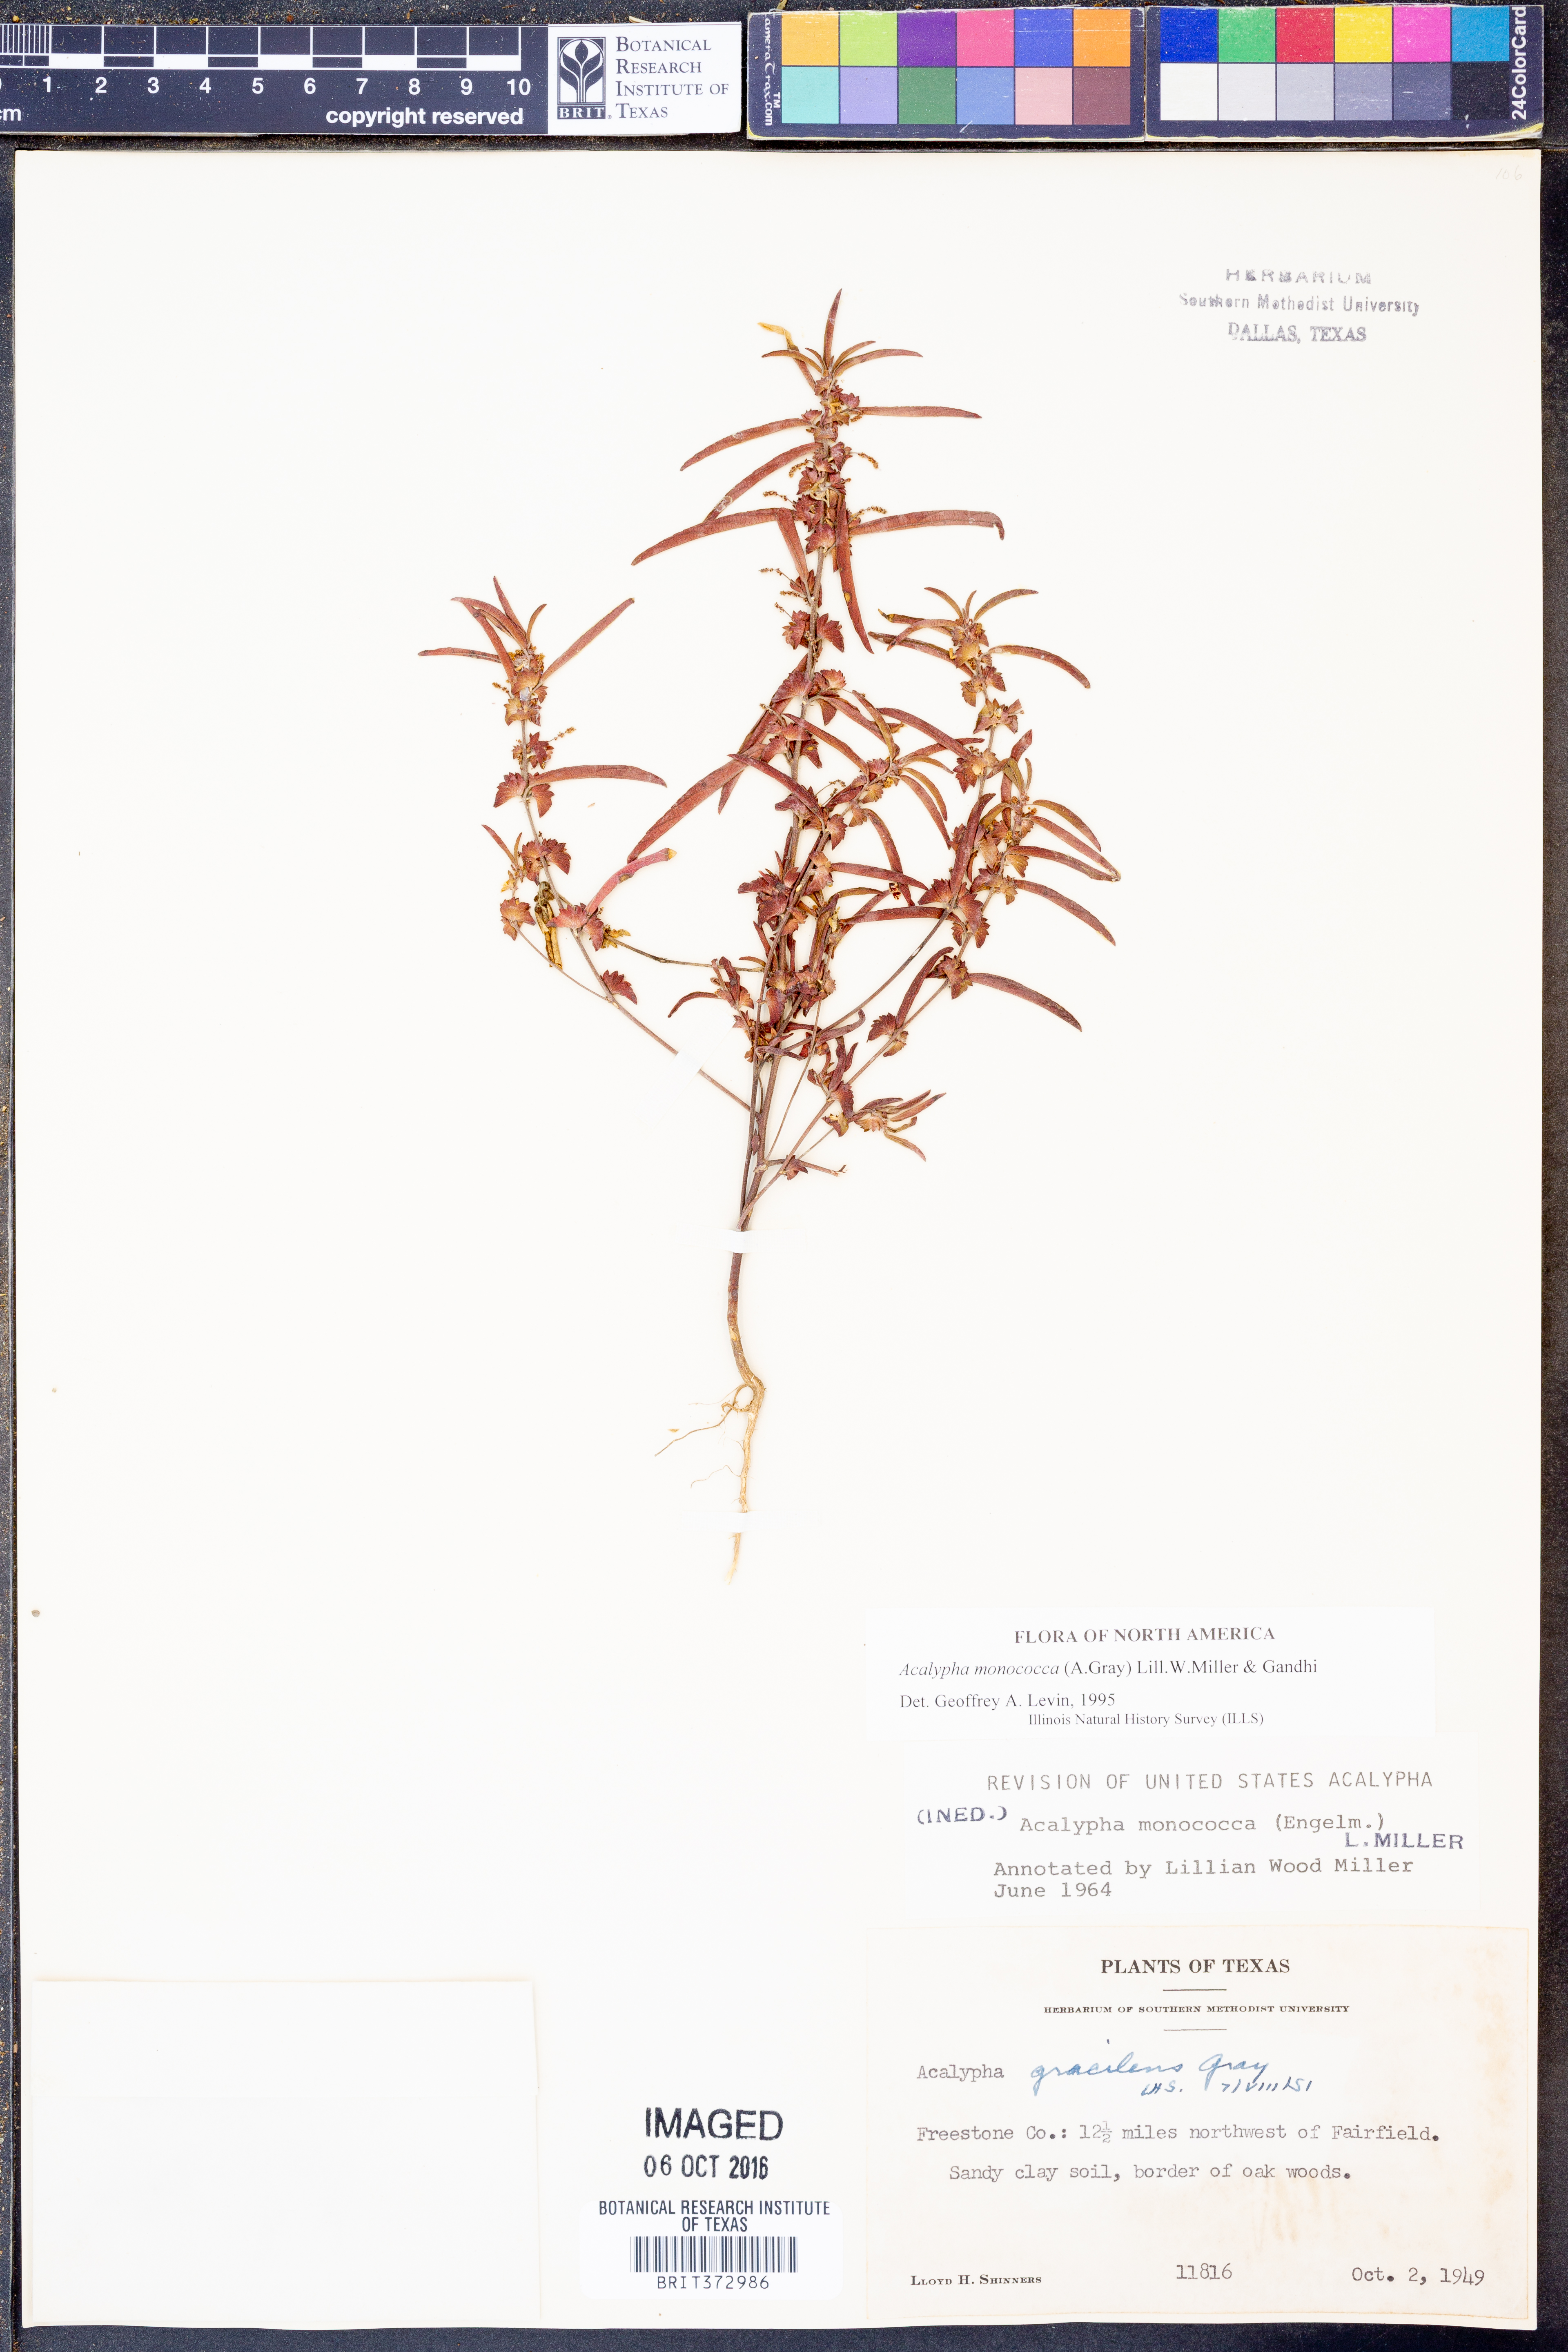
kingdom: Plantae
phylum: Tracheophyta
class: Magnoliopsida
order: Malpighiales
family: Euphorbiaceae
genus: Acalypha
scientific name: Acalypha monococca
